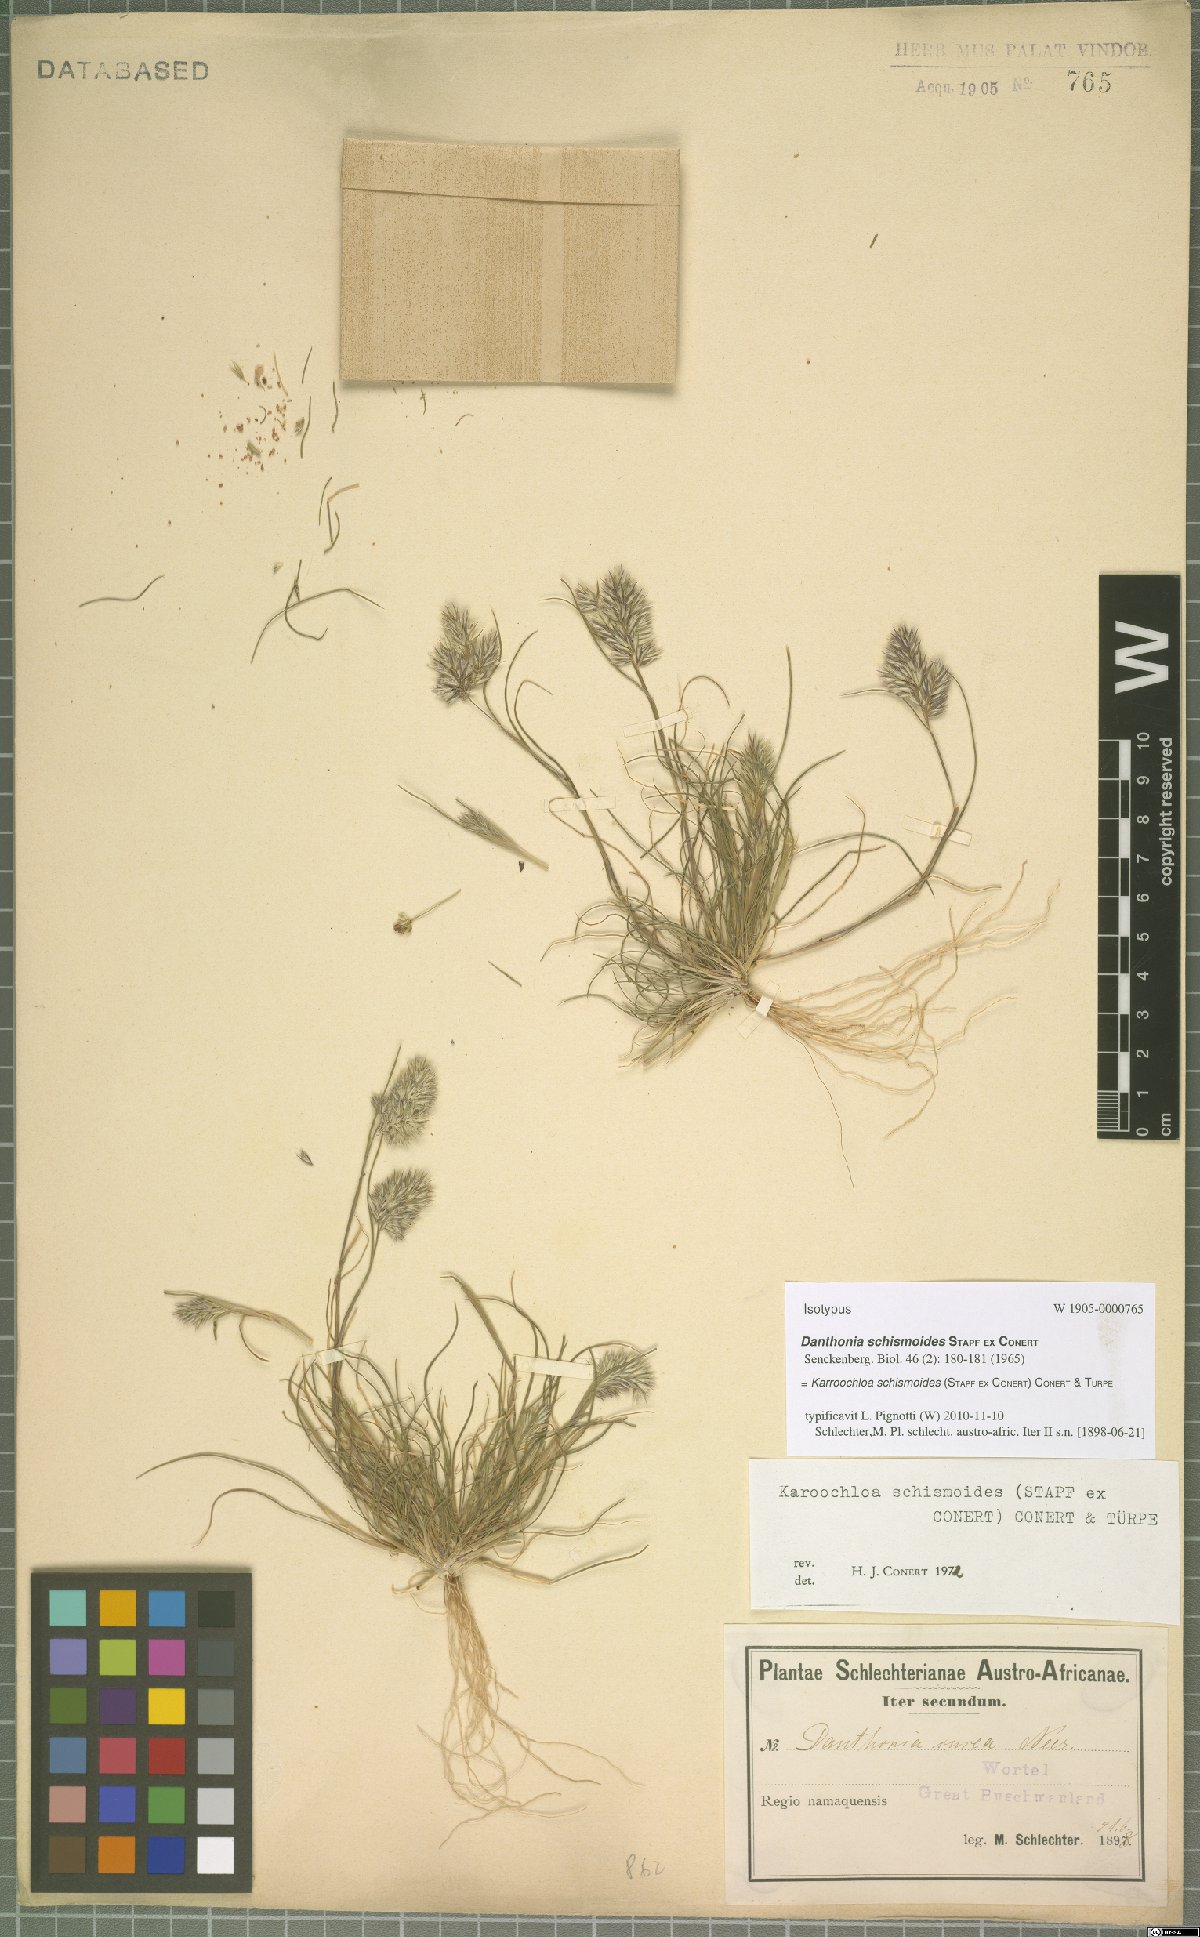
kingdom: Plantae
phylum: Tracheophyta
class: Liliopsida
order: Poales
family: Poaceae
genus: Schismus
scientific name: Schismus schismoides
